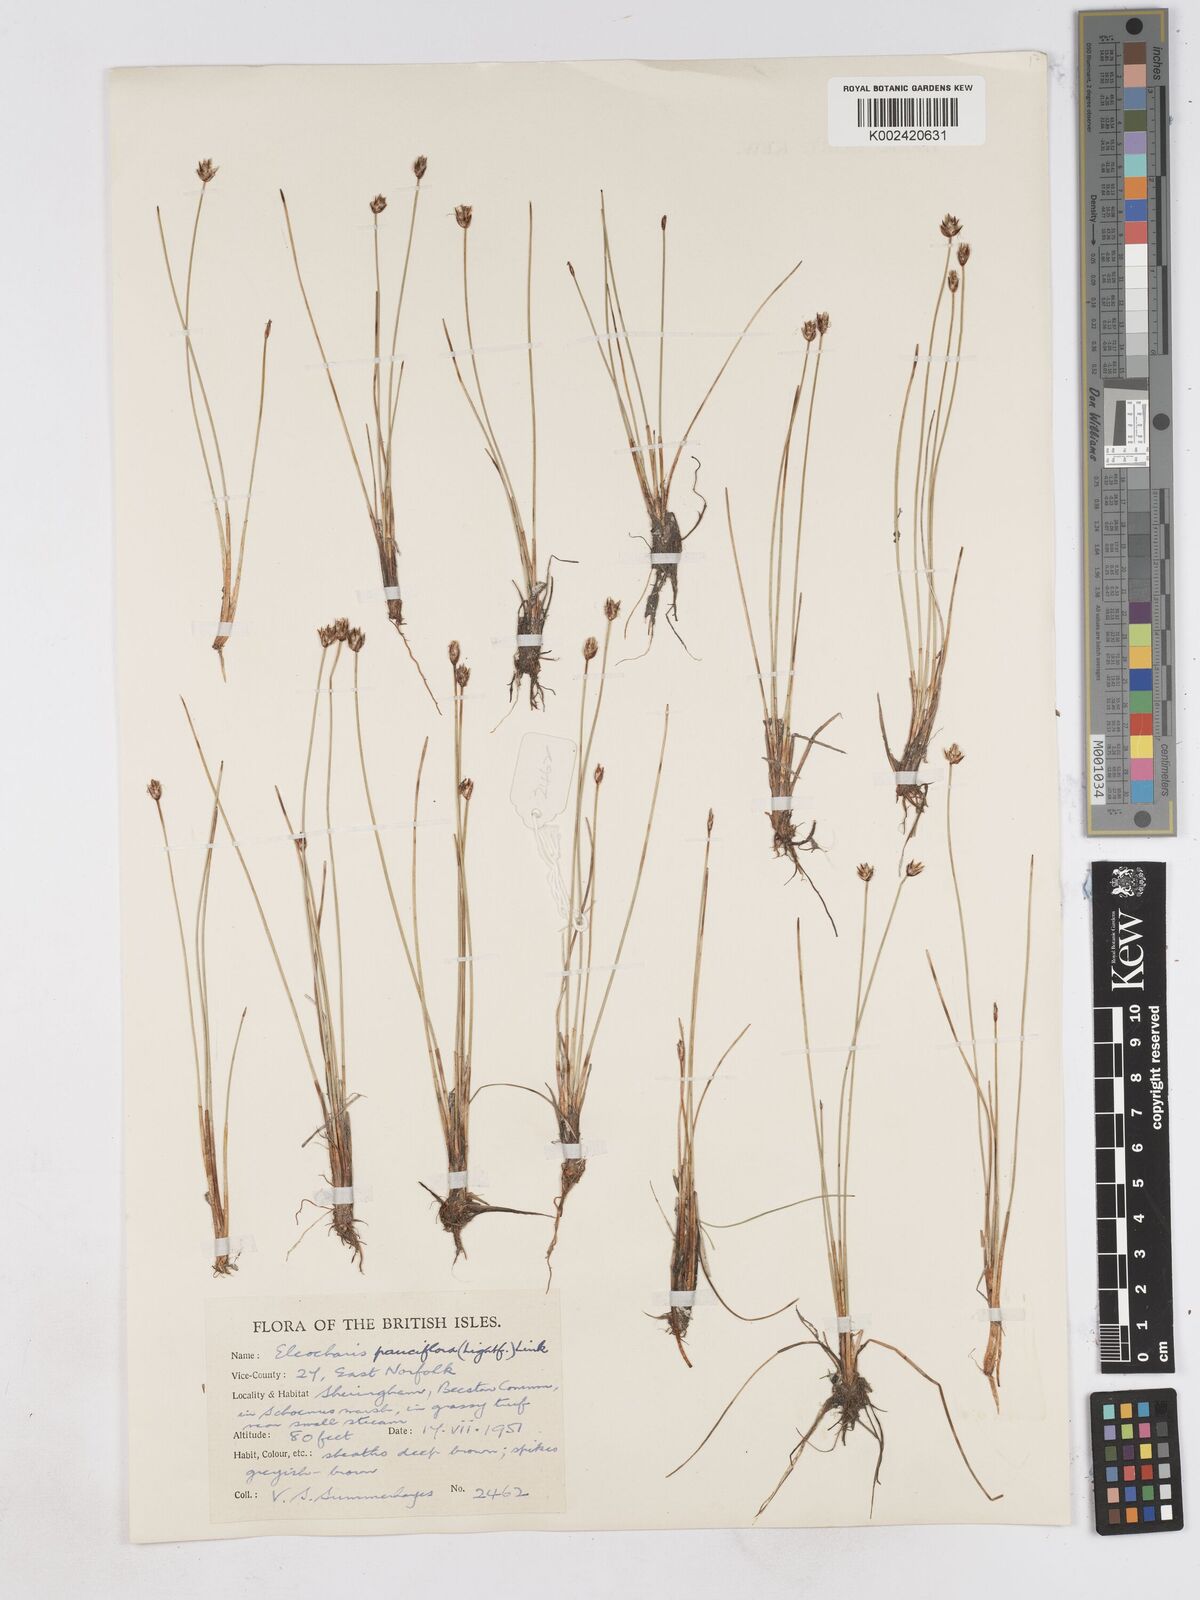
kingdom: Plantae
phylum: Tracheophyta
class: Liliopsida
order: Poales
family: Cyperaceae
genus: Eleocharis
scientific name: Eleocharis quinqueflora
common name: Few-flowered spike-rush
